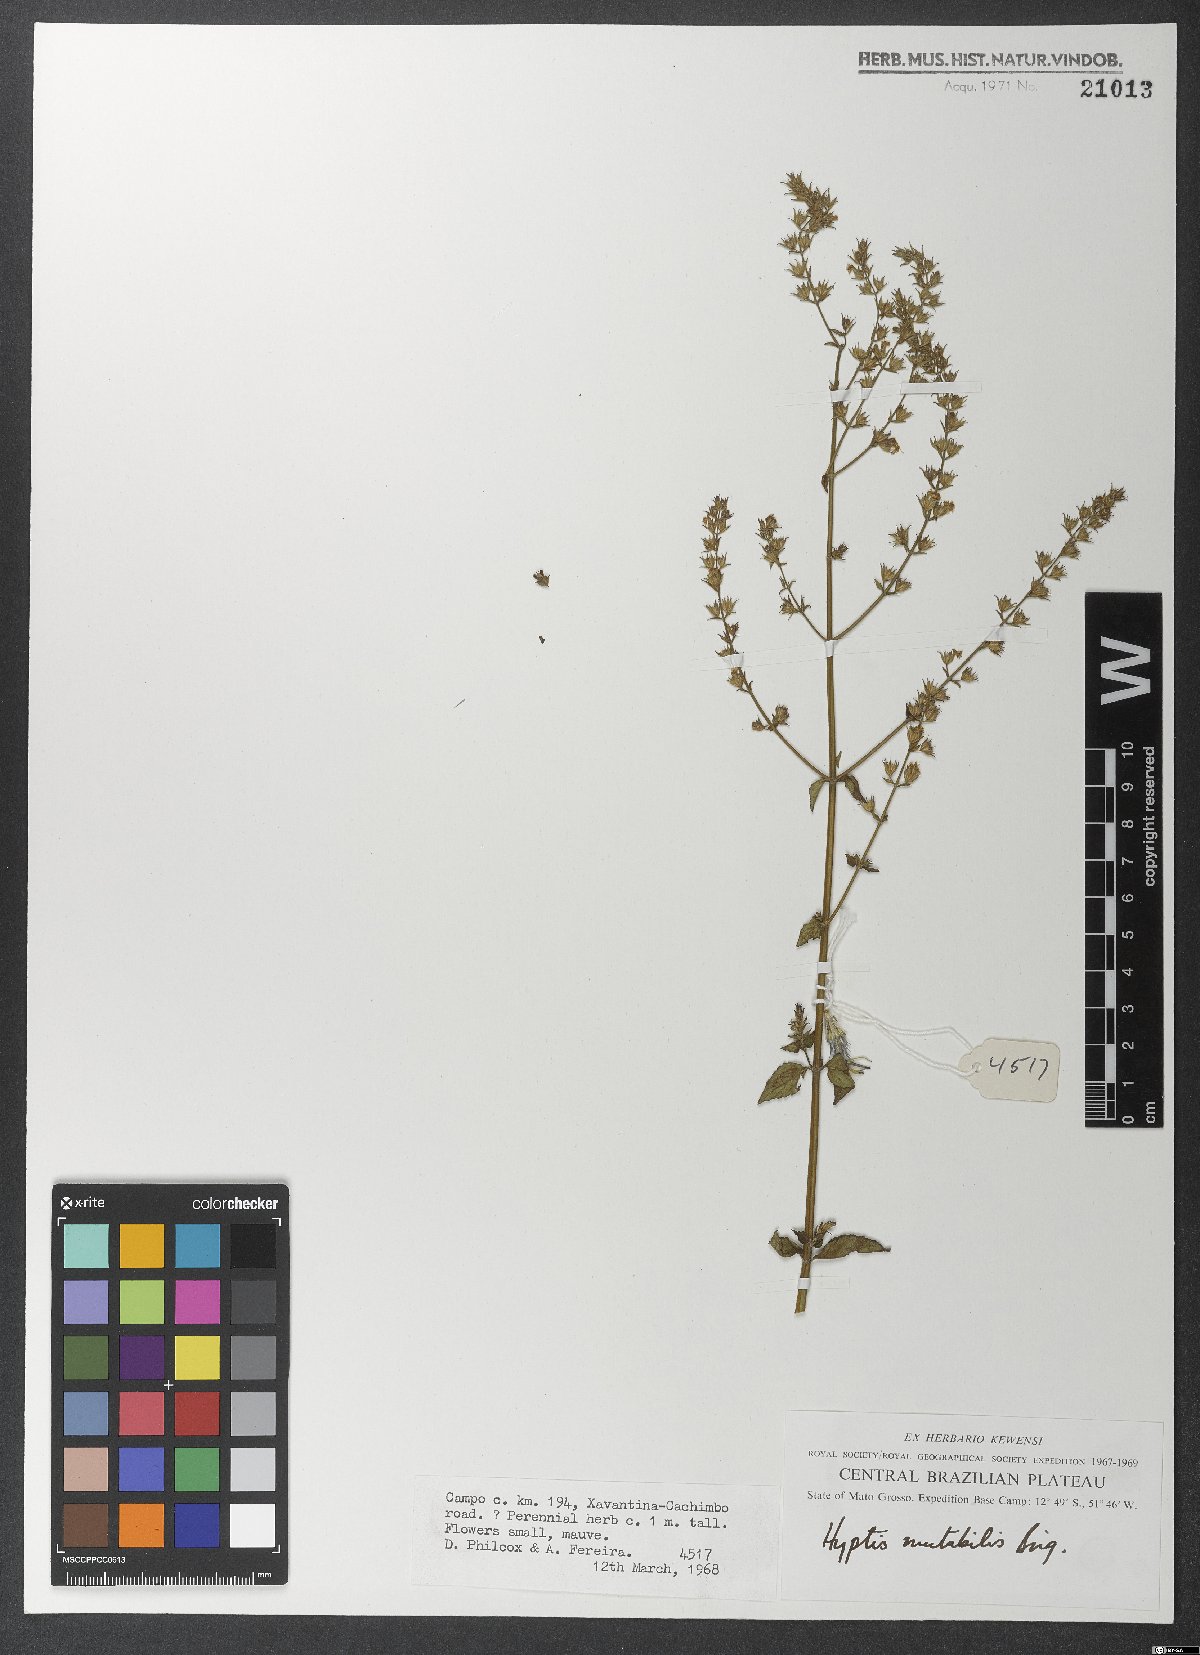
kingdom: Plantae
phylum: Tracheophyta
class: Magnoliopsida
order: Lamiales
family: Lamiaceae
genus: Cantinoa
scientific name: Cantinoa mutabilis
